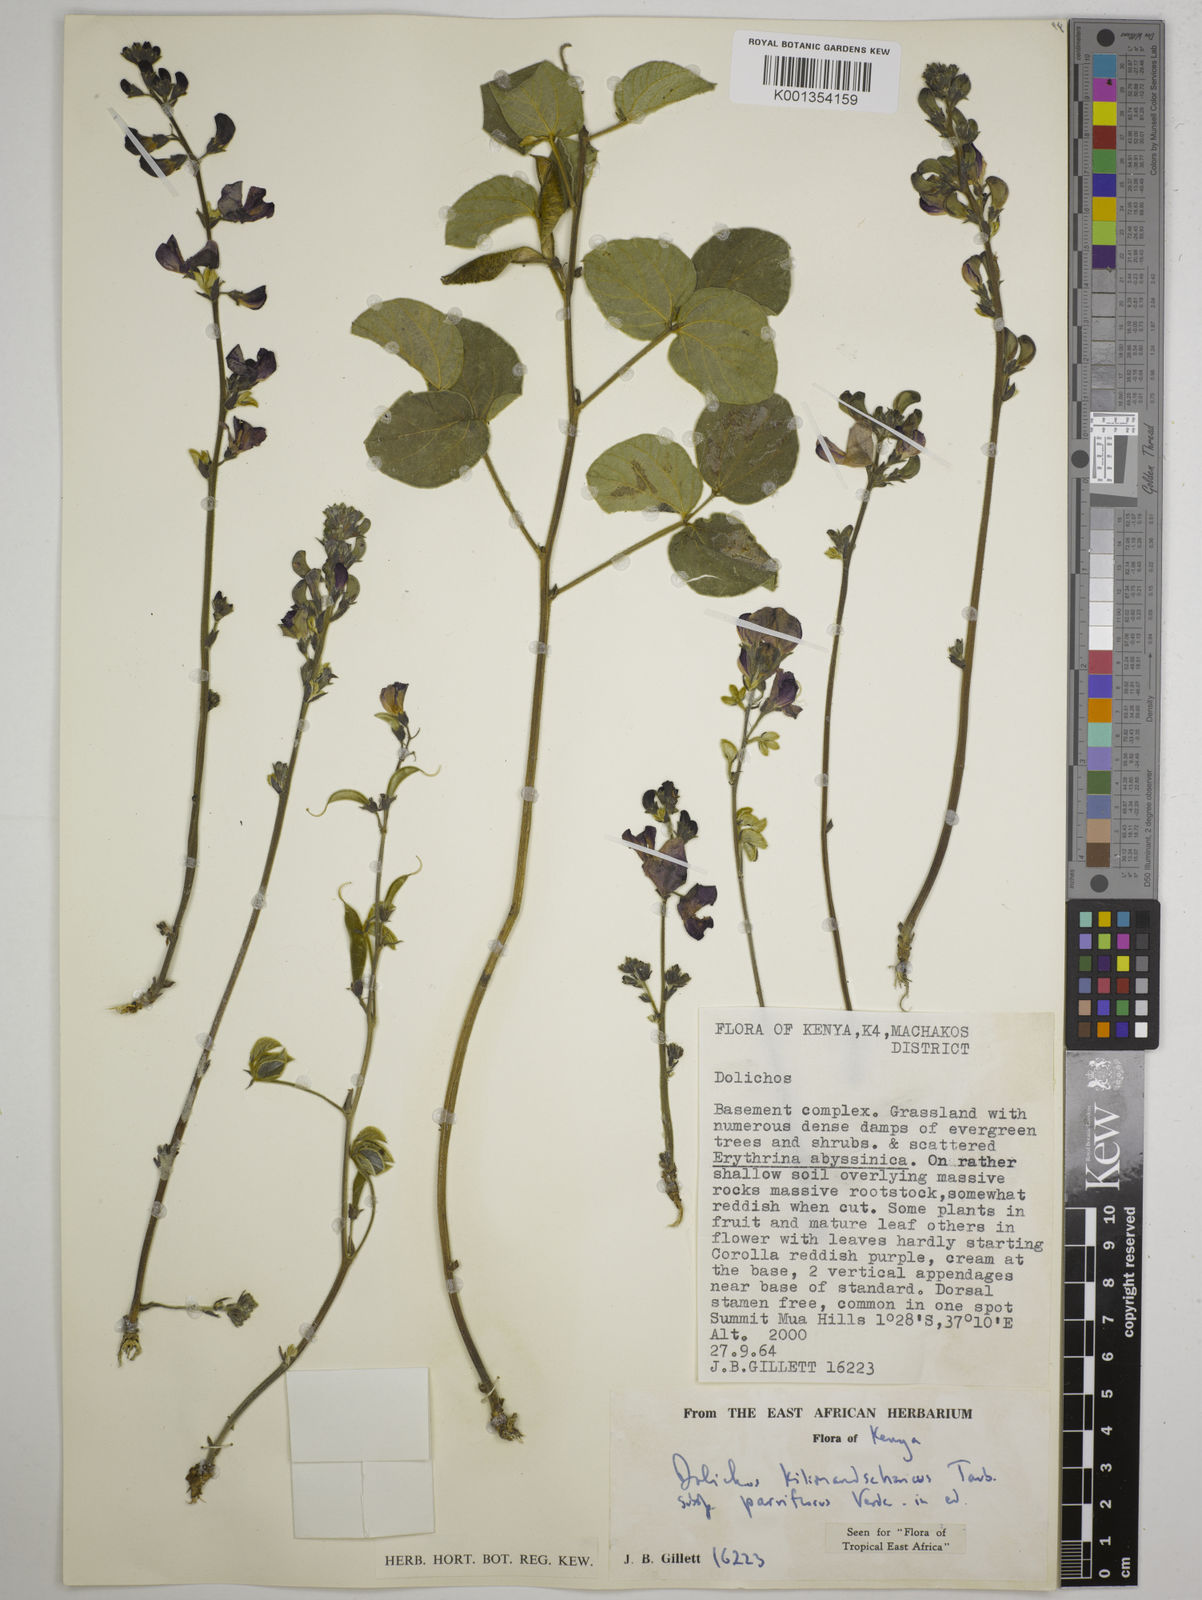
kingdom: Plantae
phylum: Tracheophyta
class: Magnoliopsida
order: Fabales
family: Fabaceae
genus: Dolichos
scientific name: Dolichos kilimandscharicus
